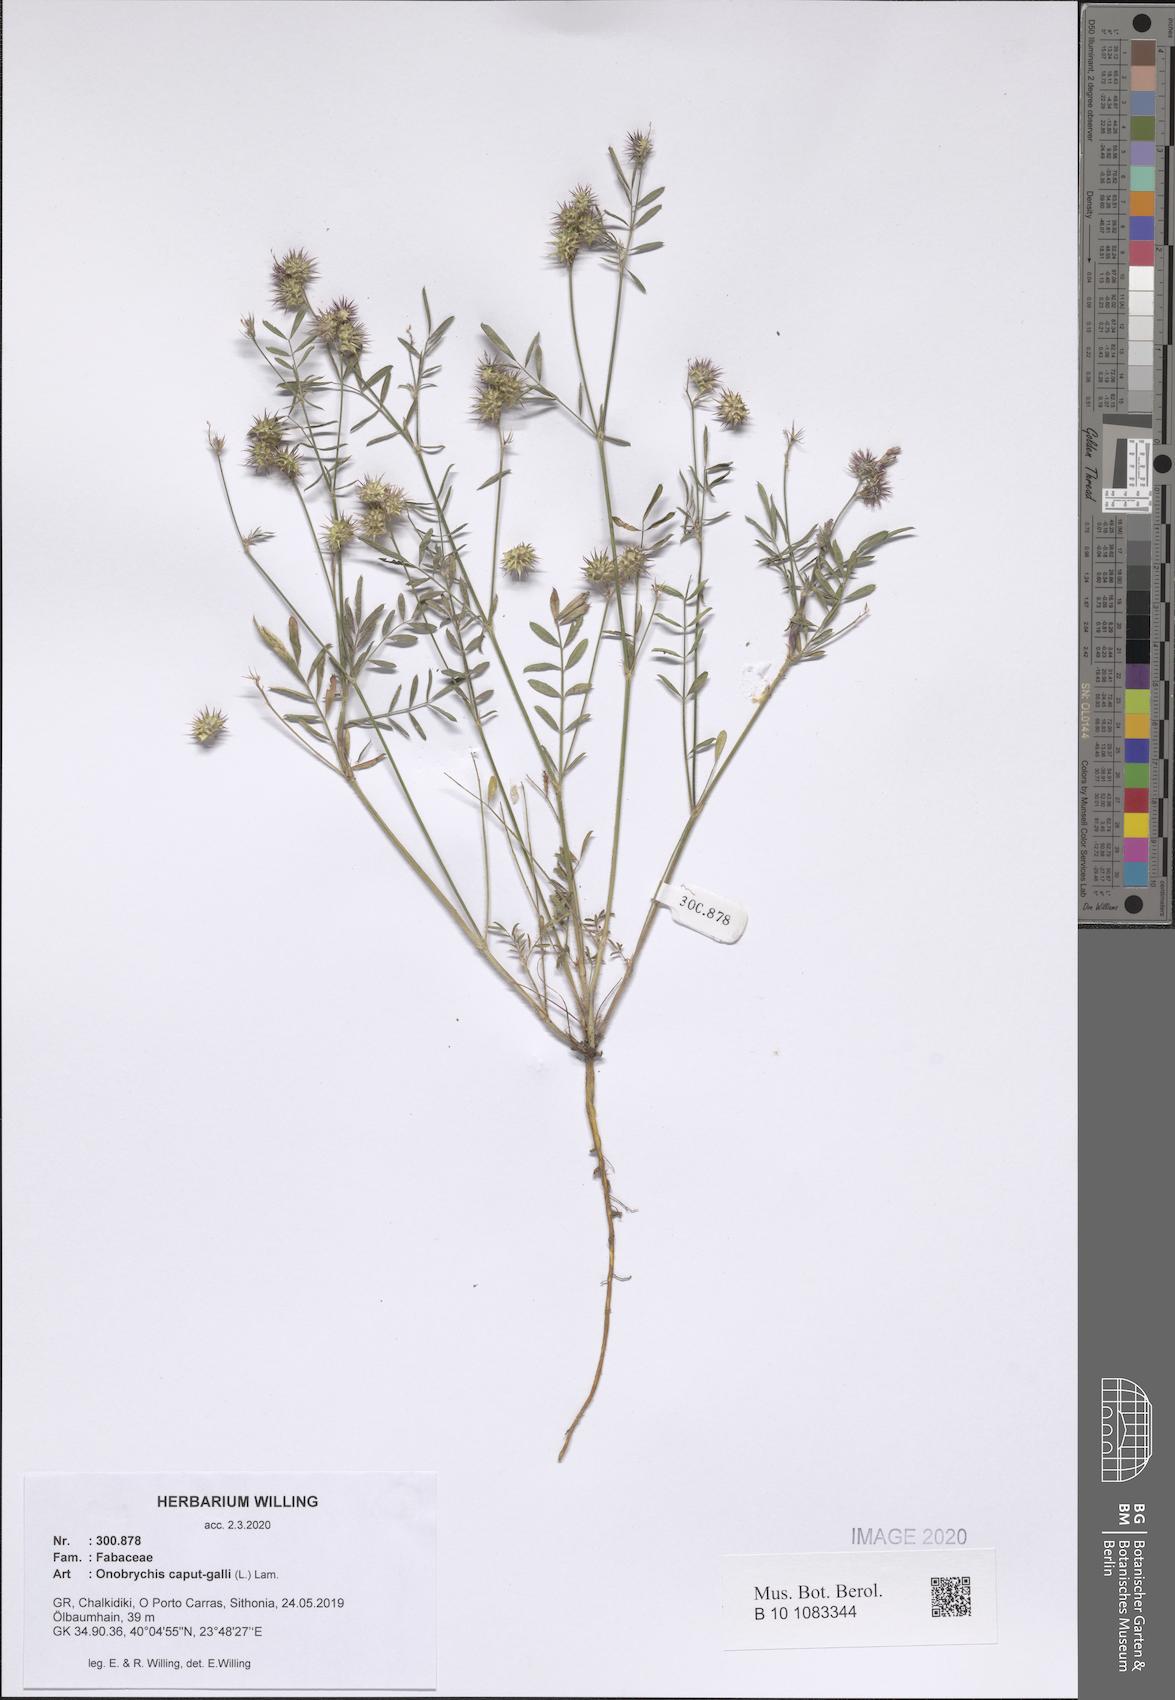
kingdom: Plantae
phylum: Tracheophyta
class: Magnoliopsida
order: Fabales
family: Fabaceae
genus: Onobrychis
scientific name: Onobrychis caput-galli
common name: Cockscomb sainfoin
